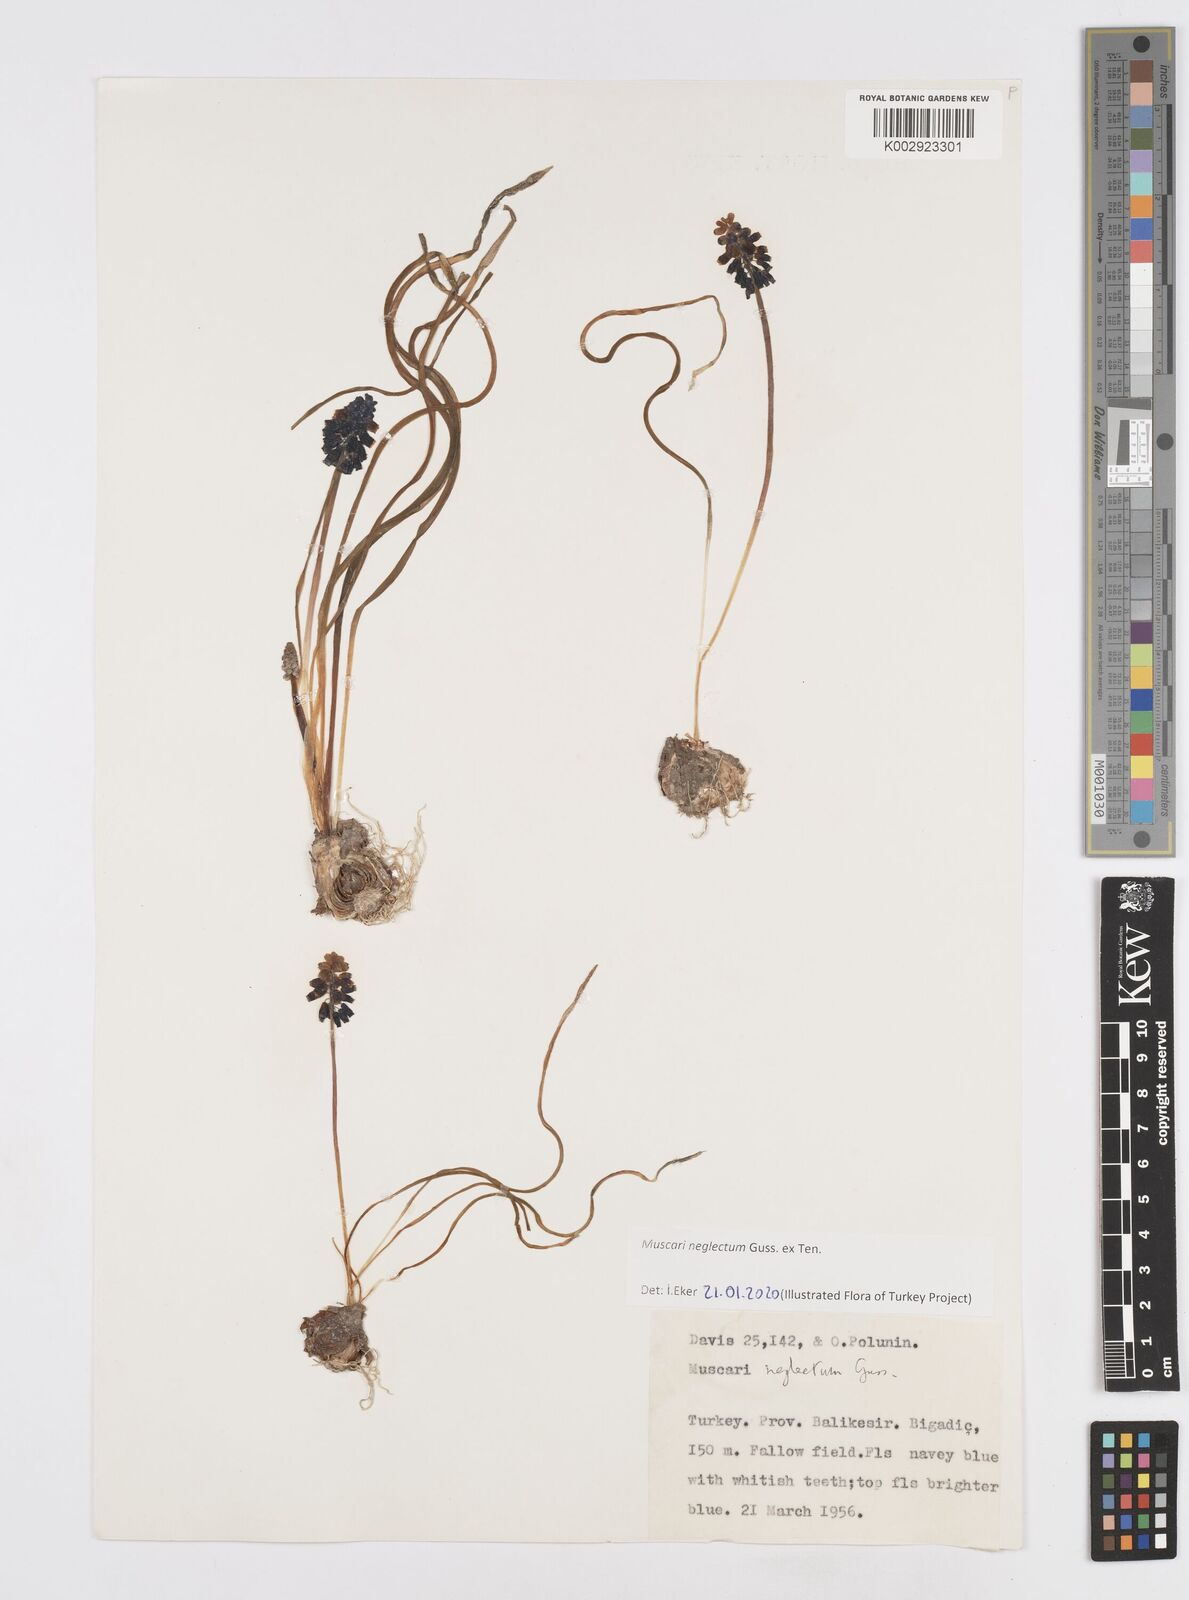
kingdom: Plantae
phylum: Tracheophyta
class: Liliopsida
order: Asparagales
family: Asparagaceae
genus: Muscari
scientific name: Muscari neglectum
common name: Grape-hyacinth
